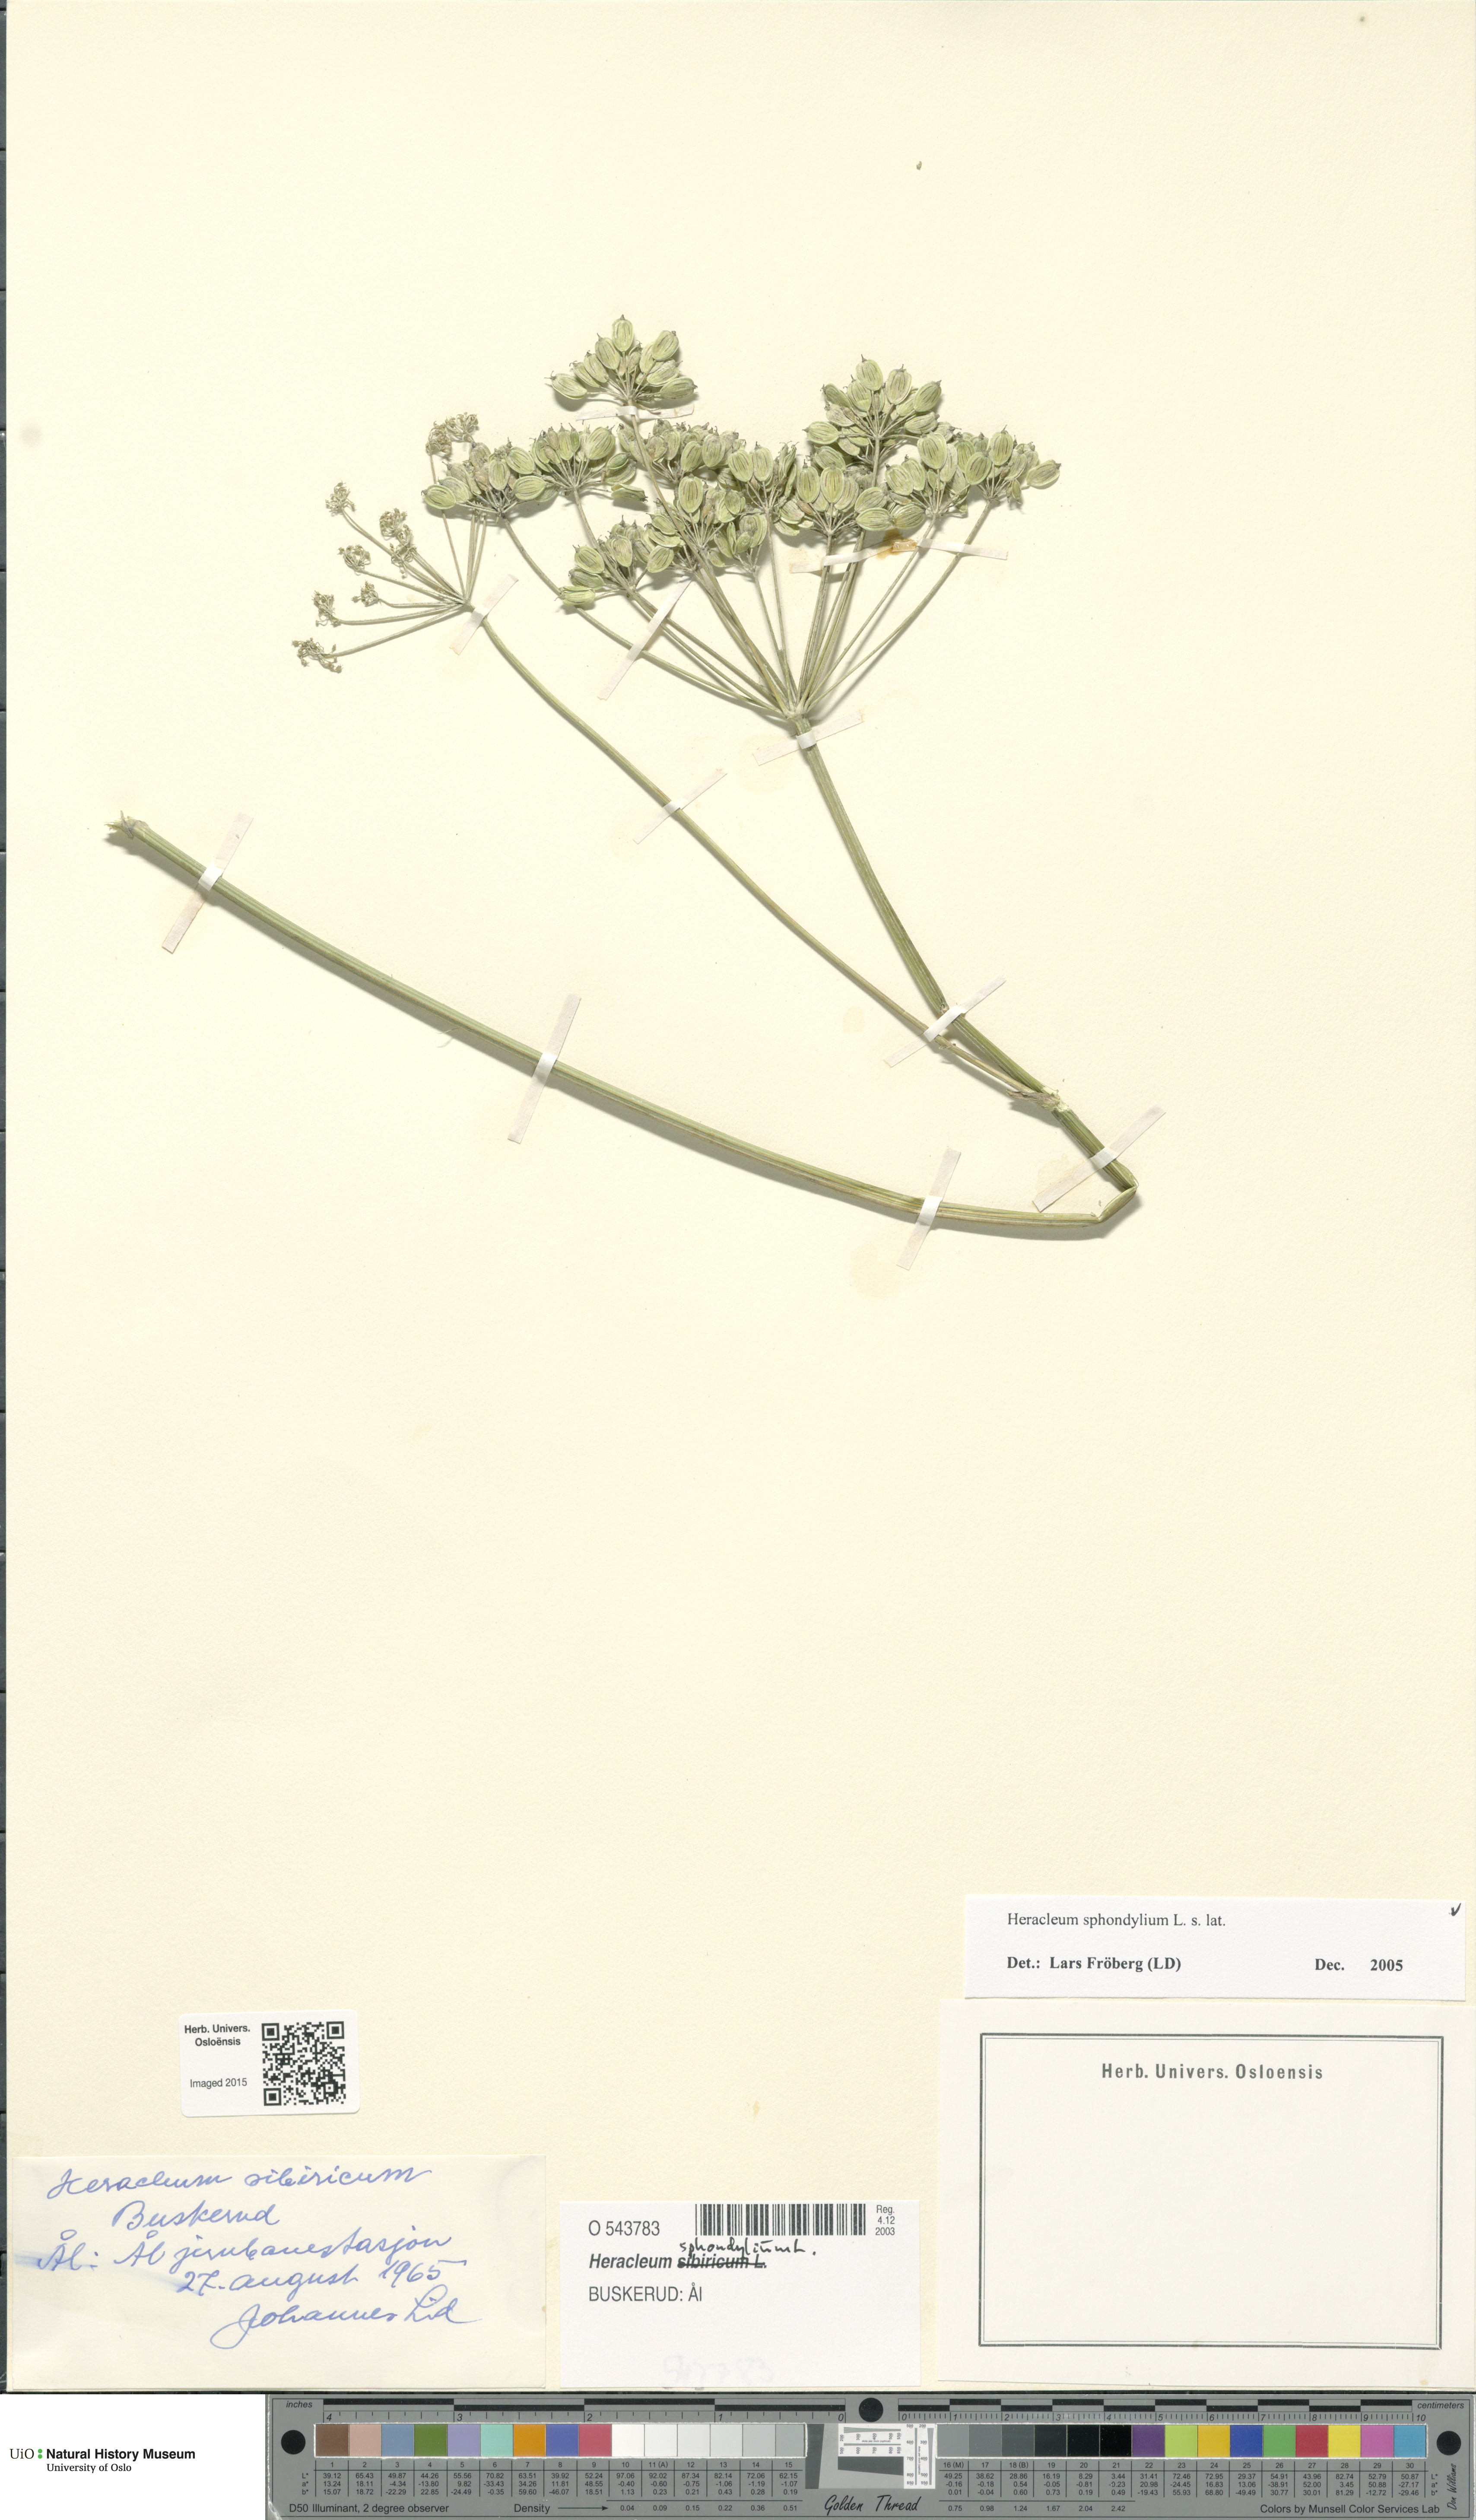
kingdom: Plantae
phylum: Tracheophyta
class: Magnoliopsida
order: Apiales
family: Apiaceae
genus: Heracleum
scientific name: Heracleum sphondylium
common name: Hogweed
